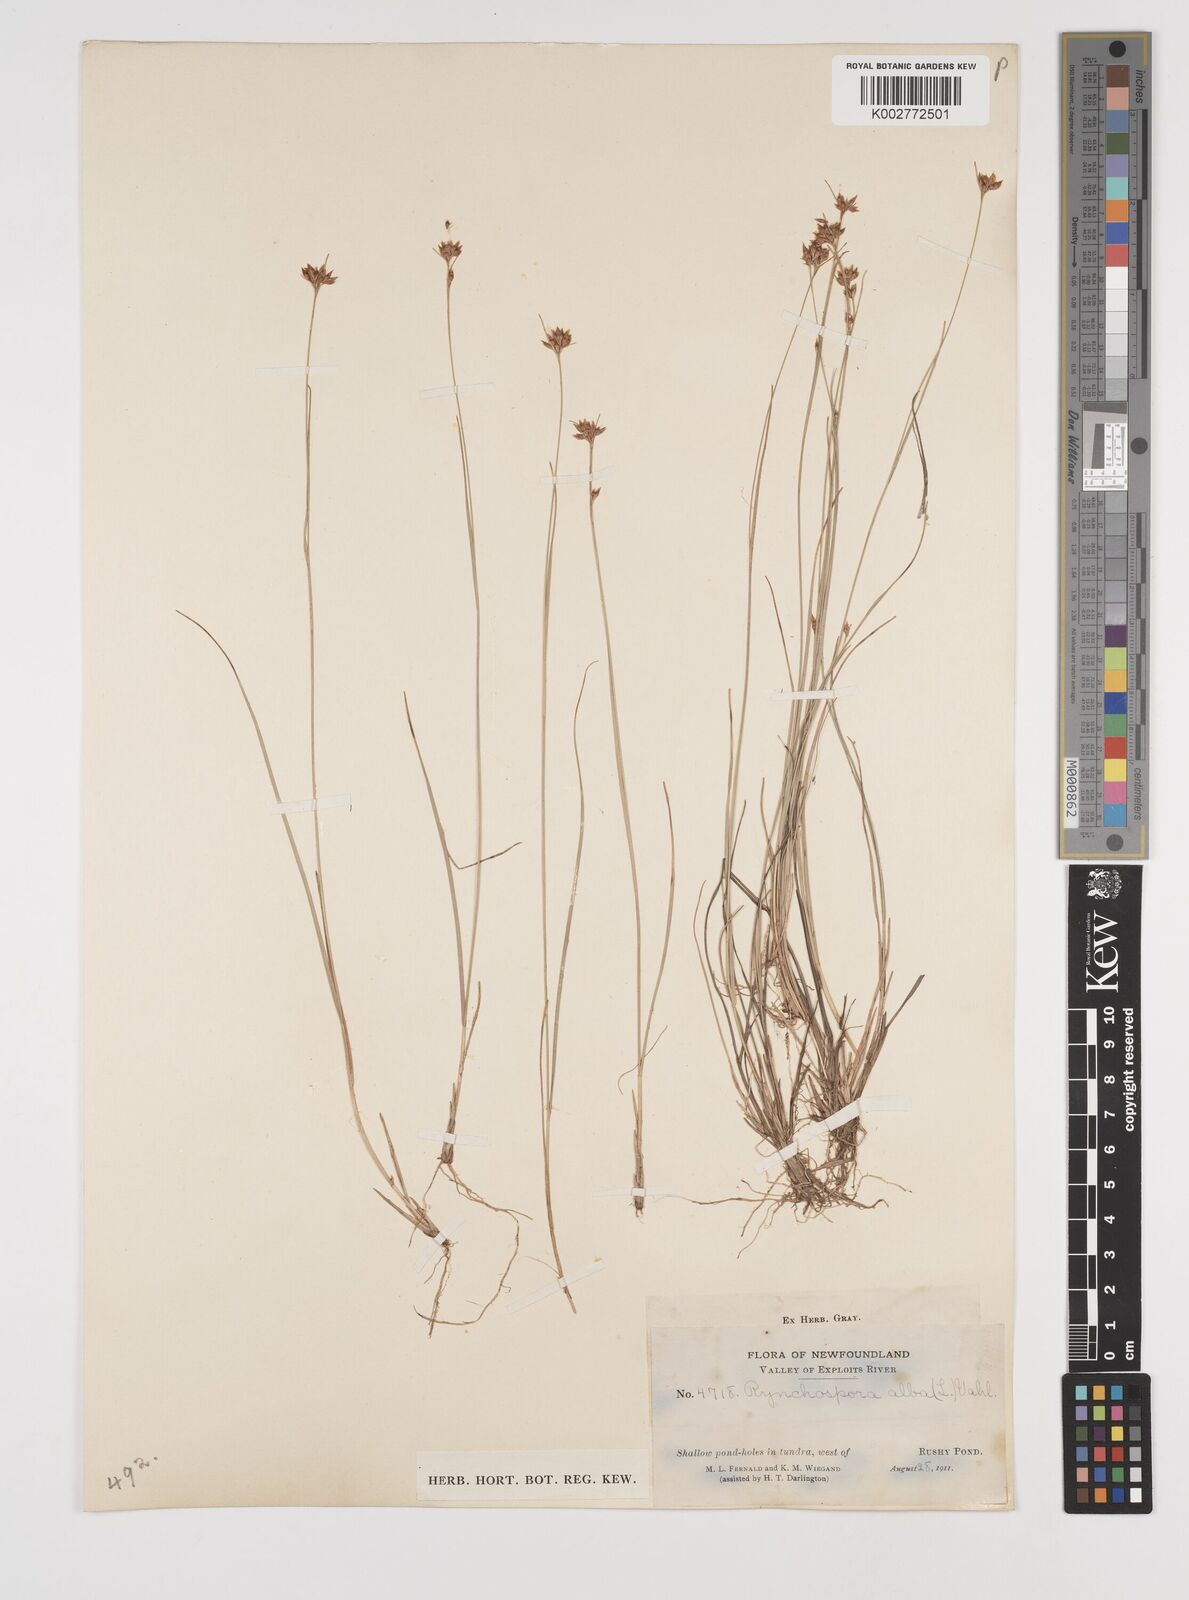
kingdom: Plantae
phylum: Tracheophyta
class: Liliopsida
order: Poales
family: Cyperaceae
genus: Rhynchospora
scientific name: Rhynchospora alba
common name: White beak-sedge
